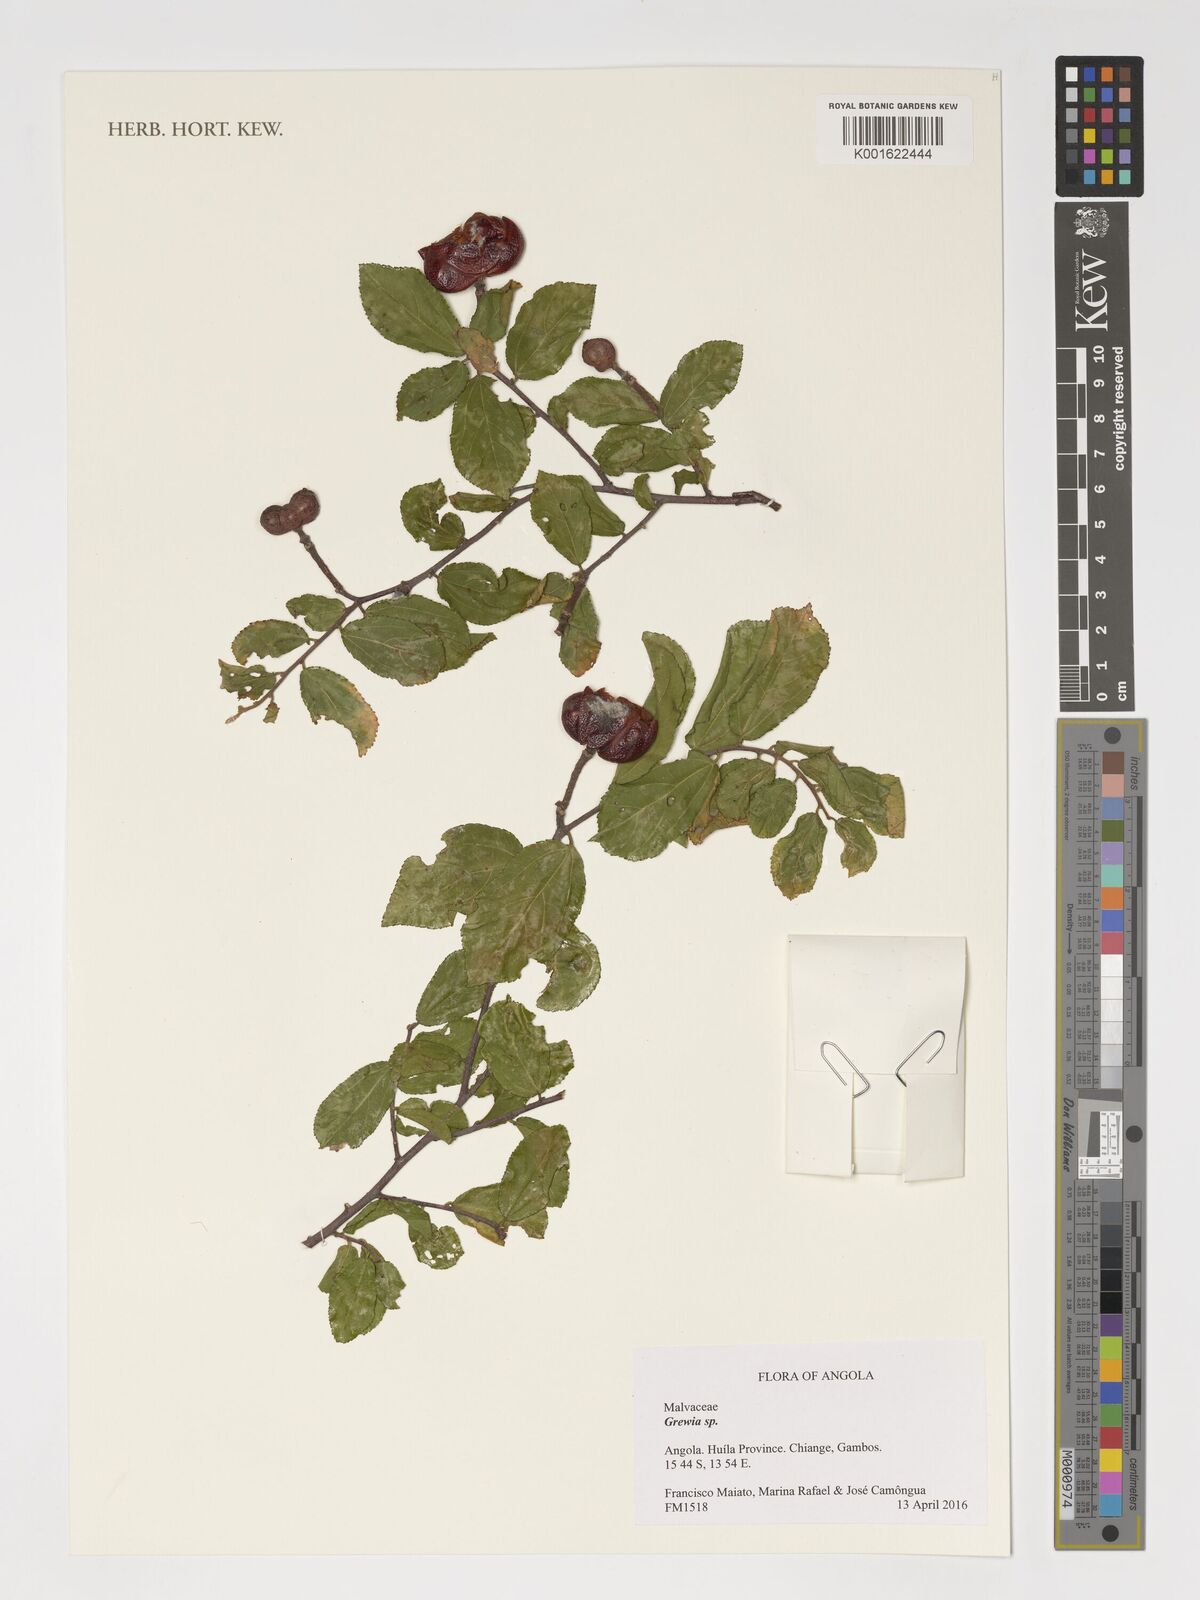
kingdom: Plantae
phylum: Tracheophyta
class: Magnoliopsida
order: Malvales
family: Malvaceae
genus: Grewia
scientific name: Grewia
